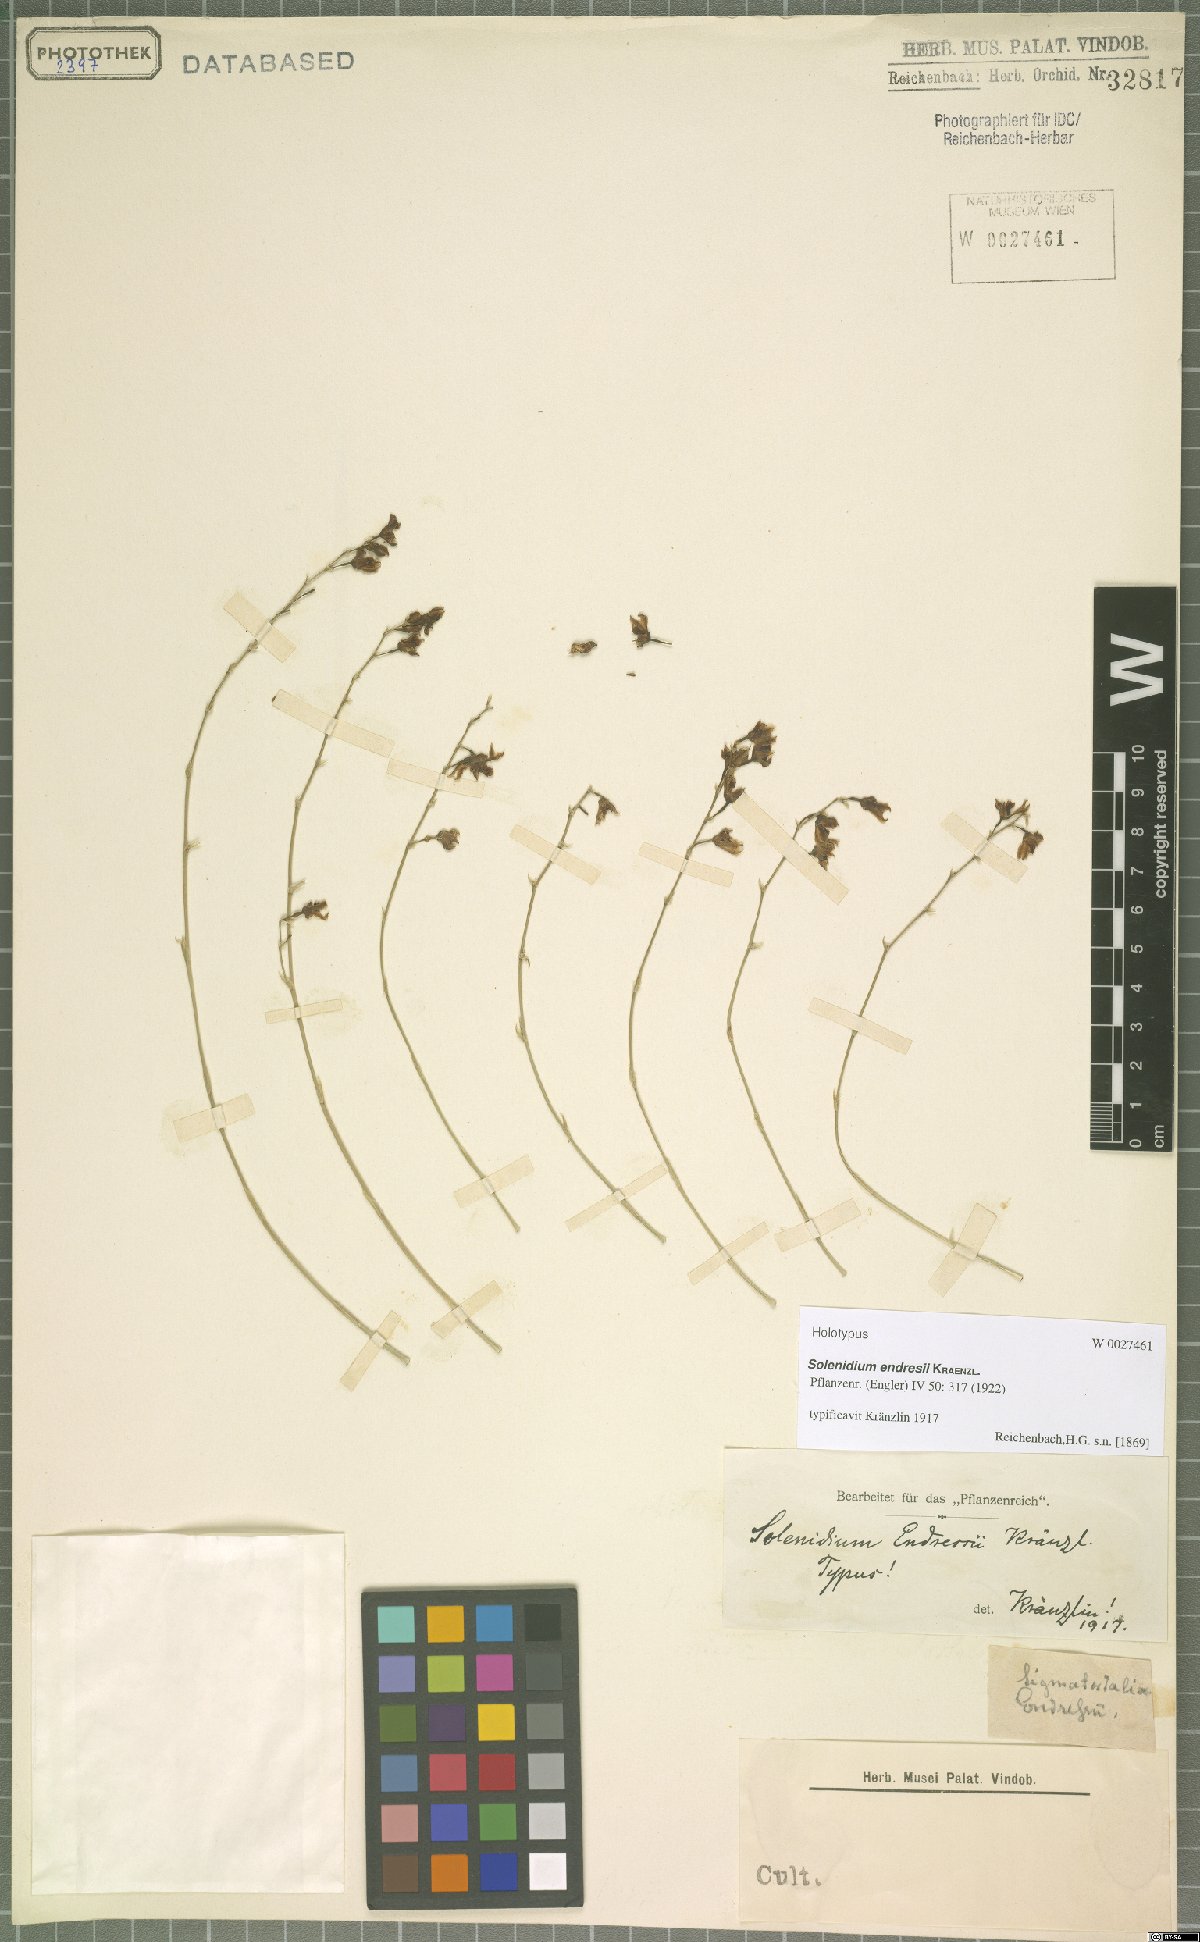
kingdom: Plantae
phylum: Tracheophyta
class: Liliopsida
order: Asparagales
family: Orchidaceae
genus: Brassia
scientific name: Brassia endresii
